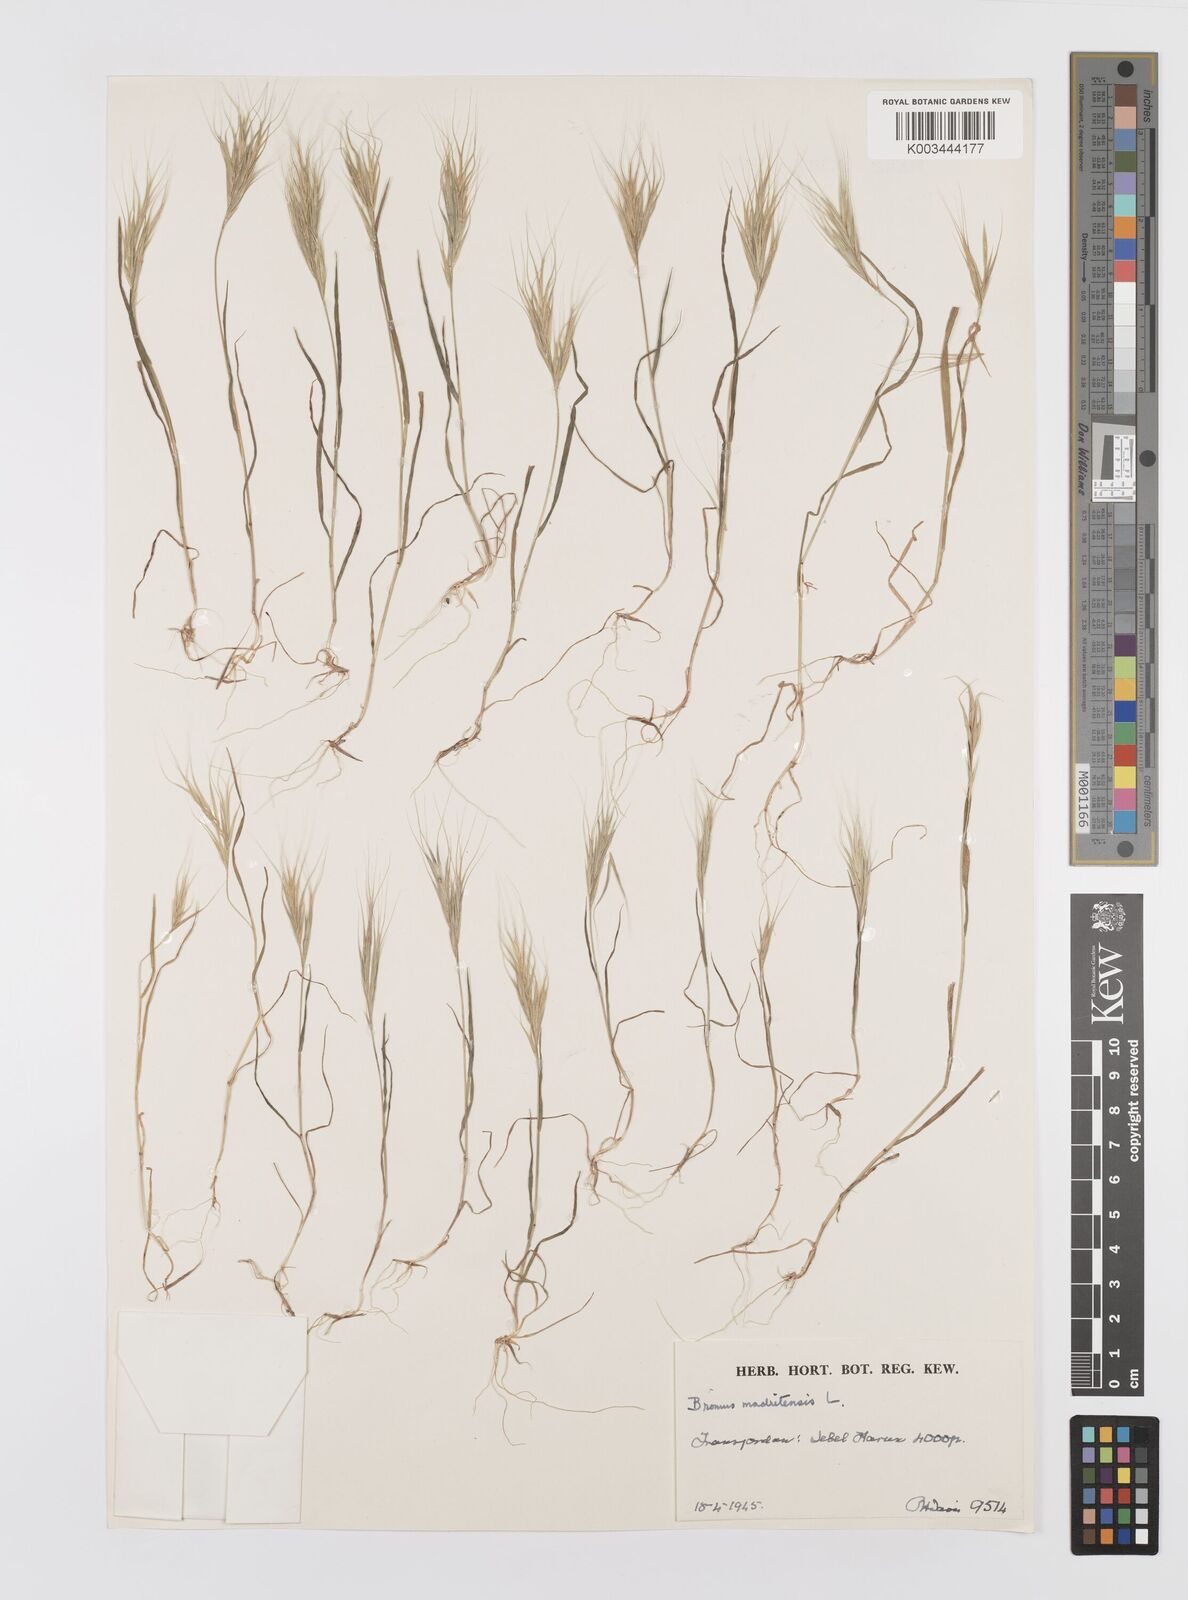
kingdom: Plantae
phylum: Tracheophyta
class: Liliopsida
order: Poales
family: Poaceae
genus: Bromus
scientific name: Bromus madritensis
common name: Compact brome
